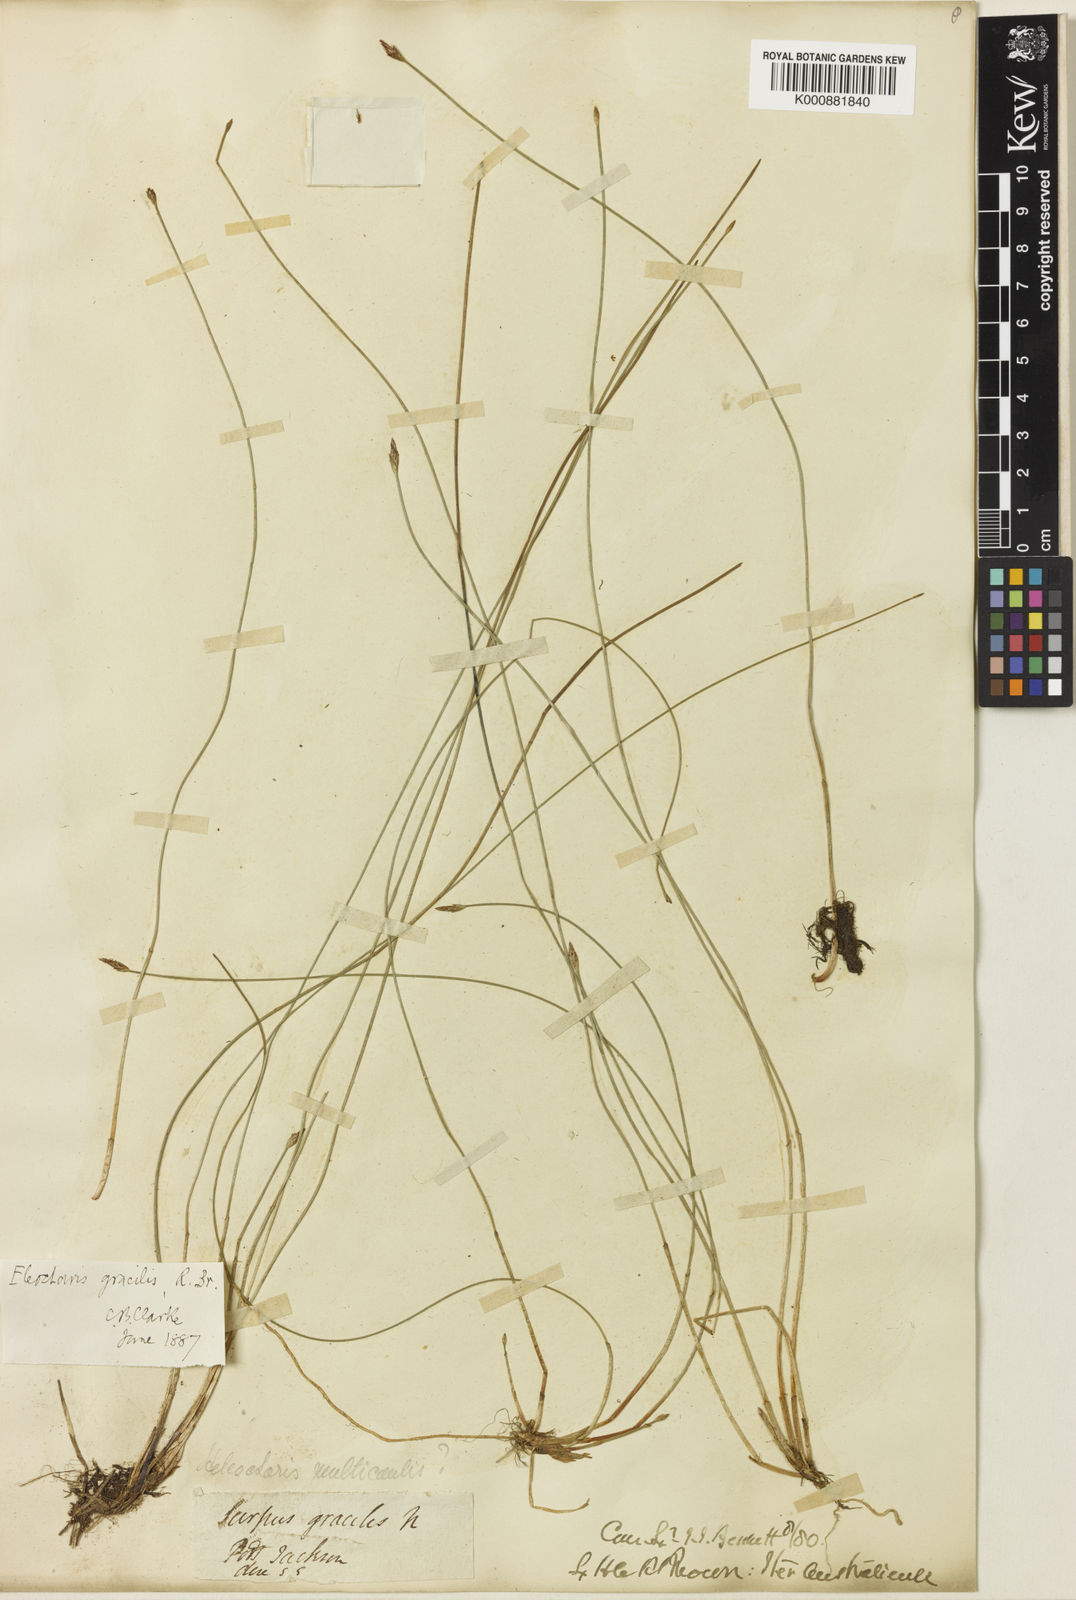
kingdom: Plantae
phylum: Tracheophyta
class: Liliopsida
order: Poales
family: Cyperaceae
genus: Eleocharis
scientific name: Eleocharis multicaulis
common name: Many-stalked spike-rush
